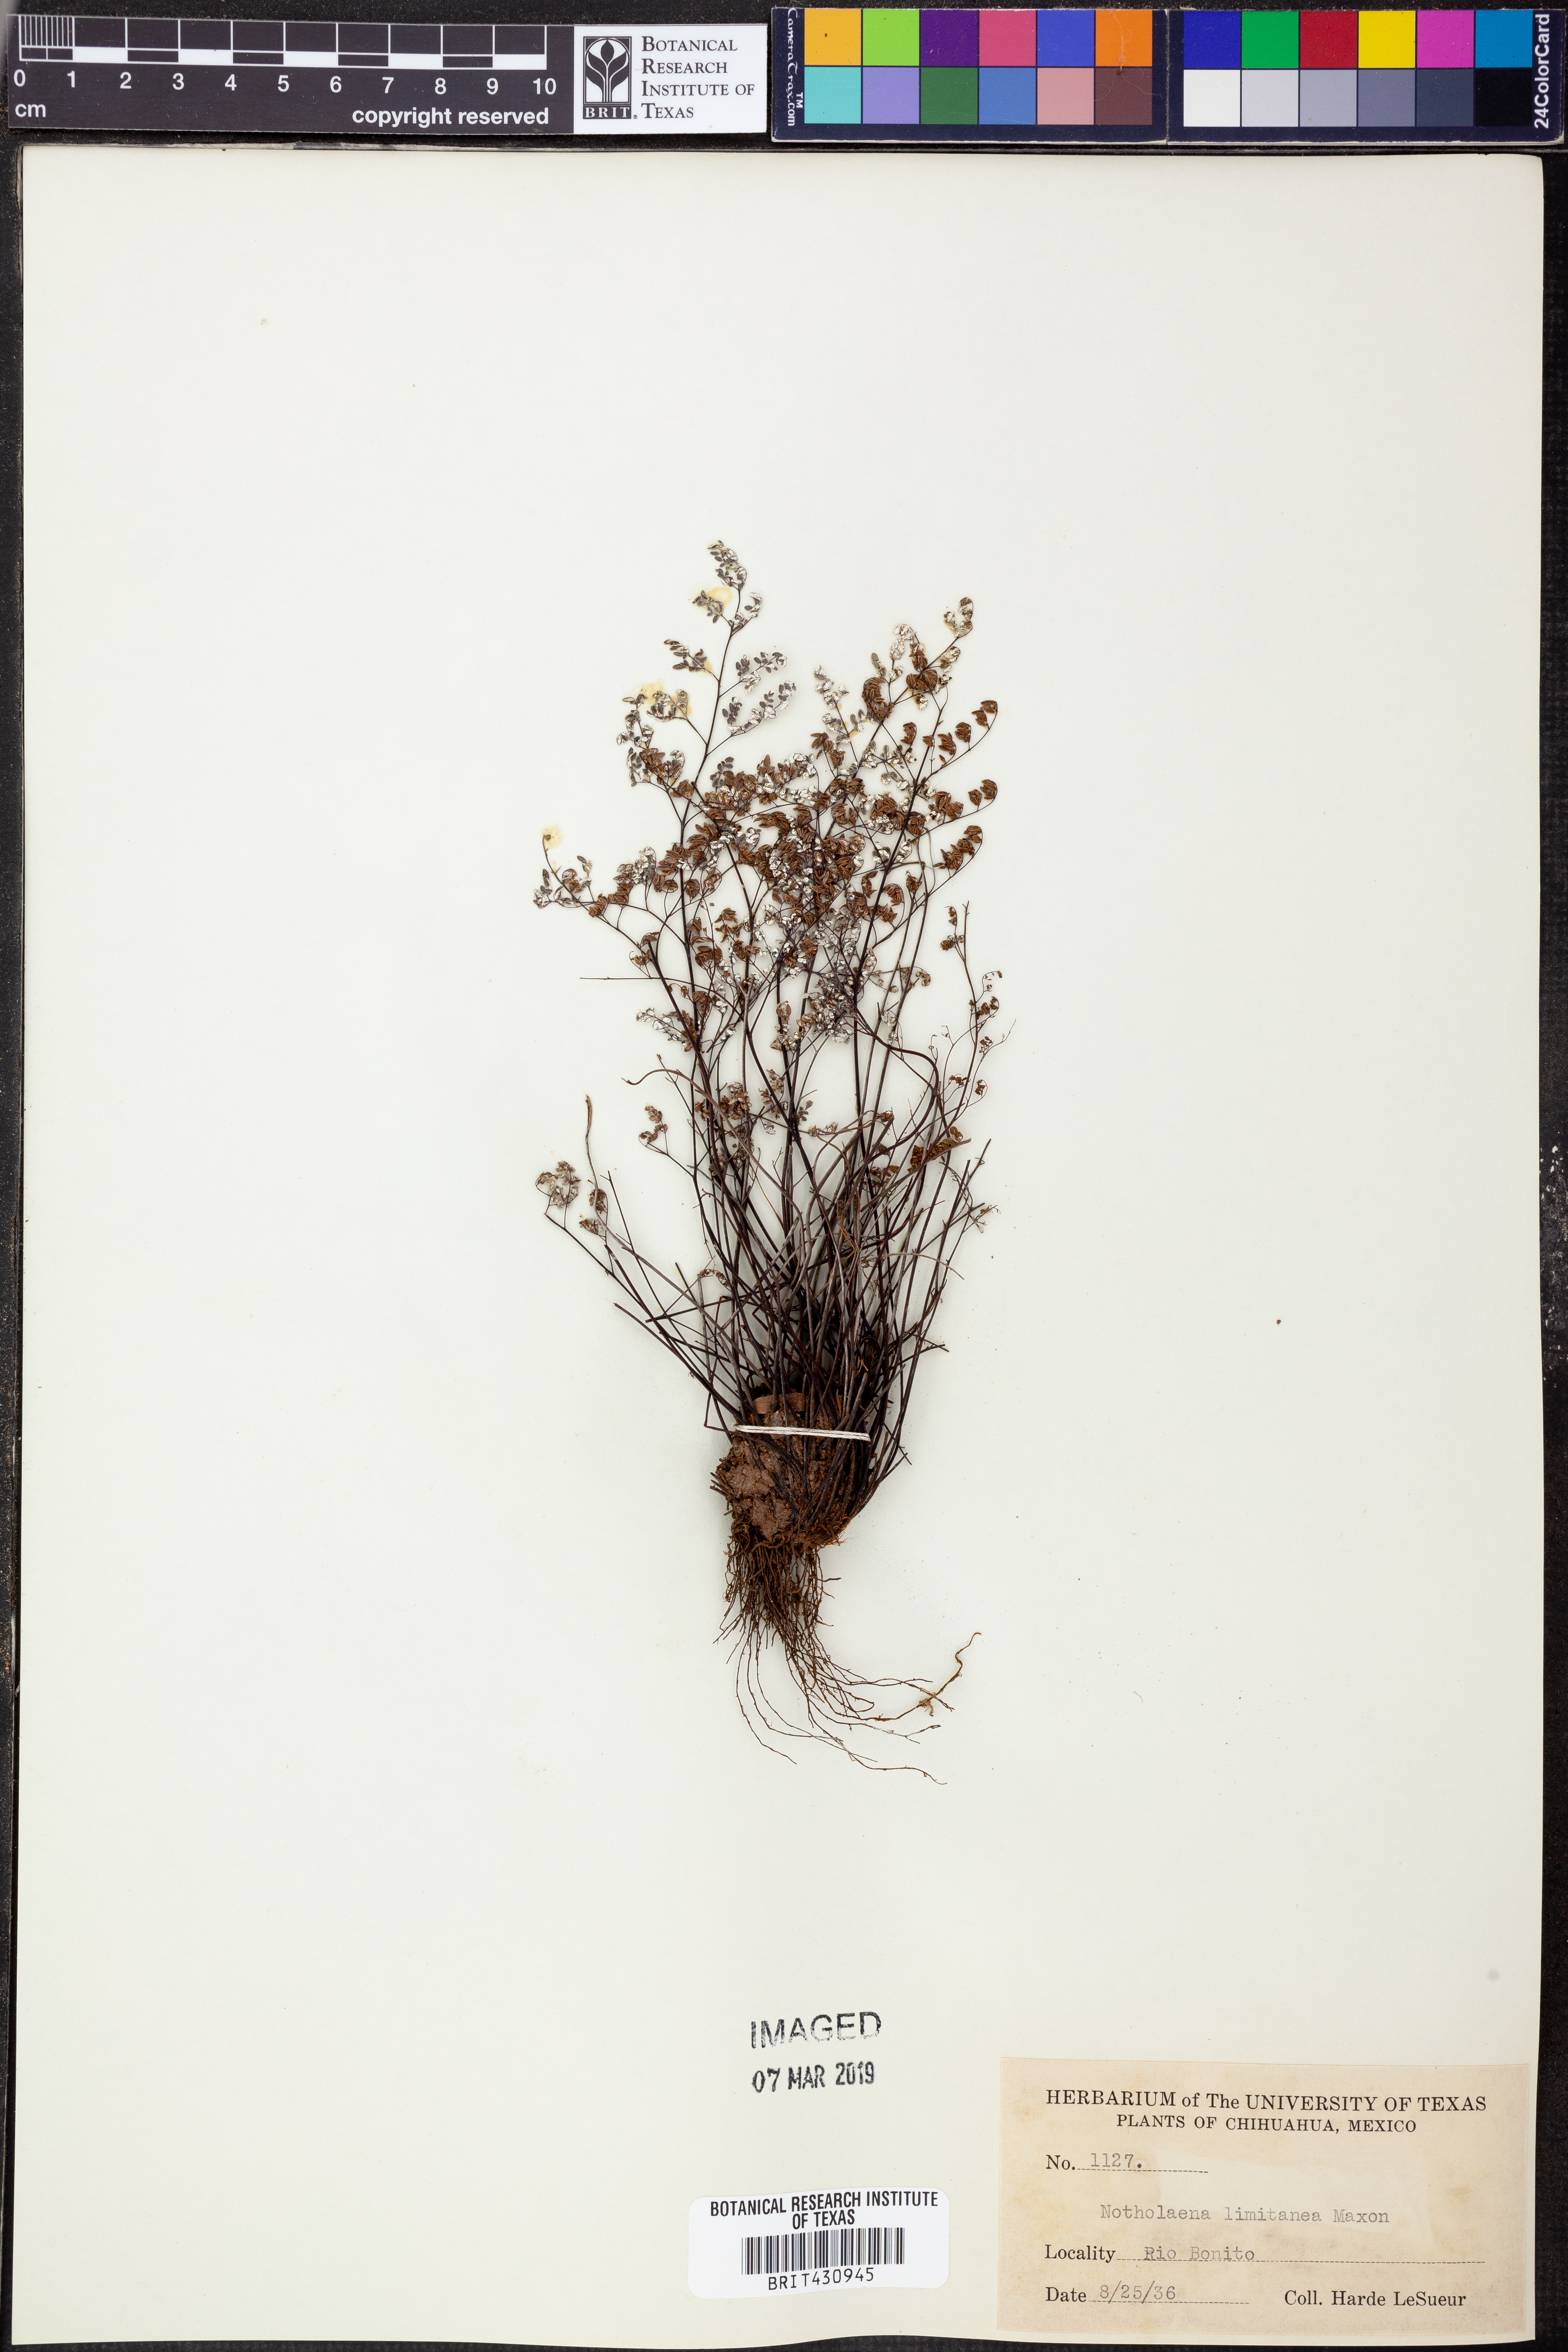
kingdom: Plantae
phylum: Tracheophyta
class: Polypodiopsida
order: Polypodiales
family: Pteridaceae
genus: Argyrochosma
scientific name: Argyrochosma limitanea
